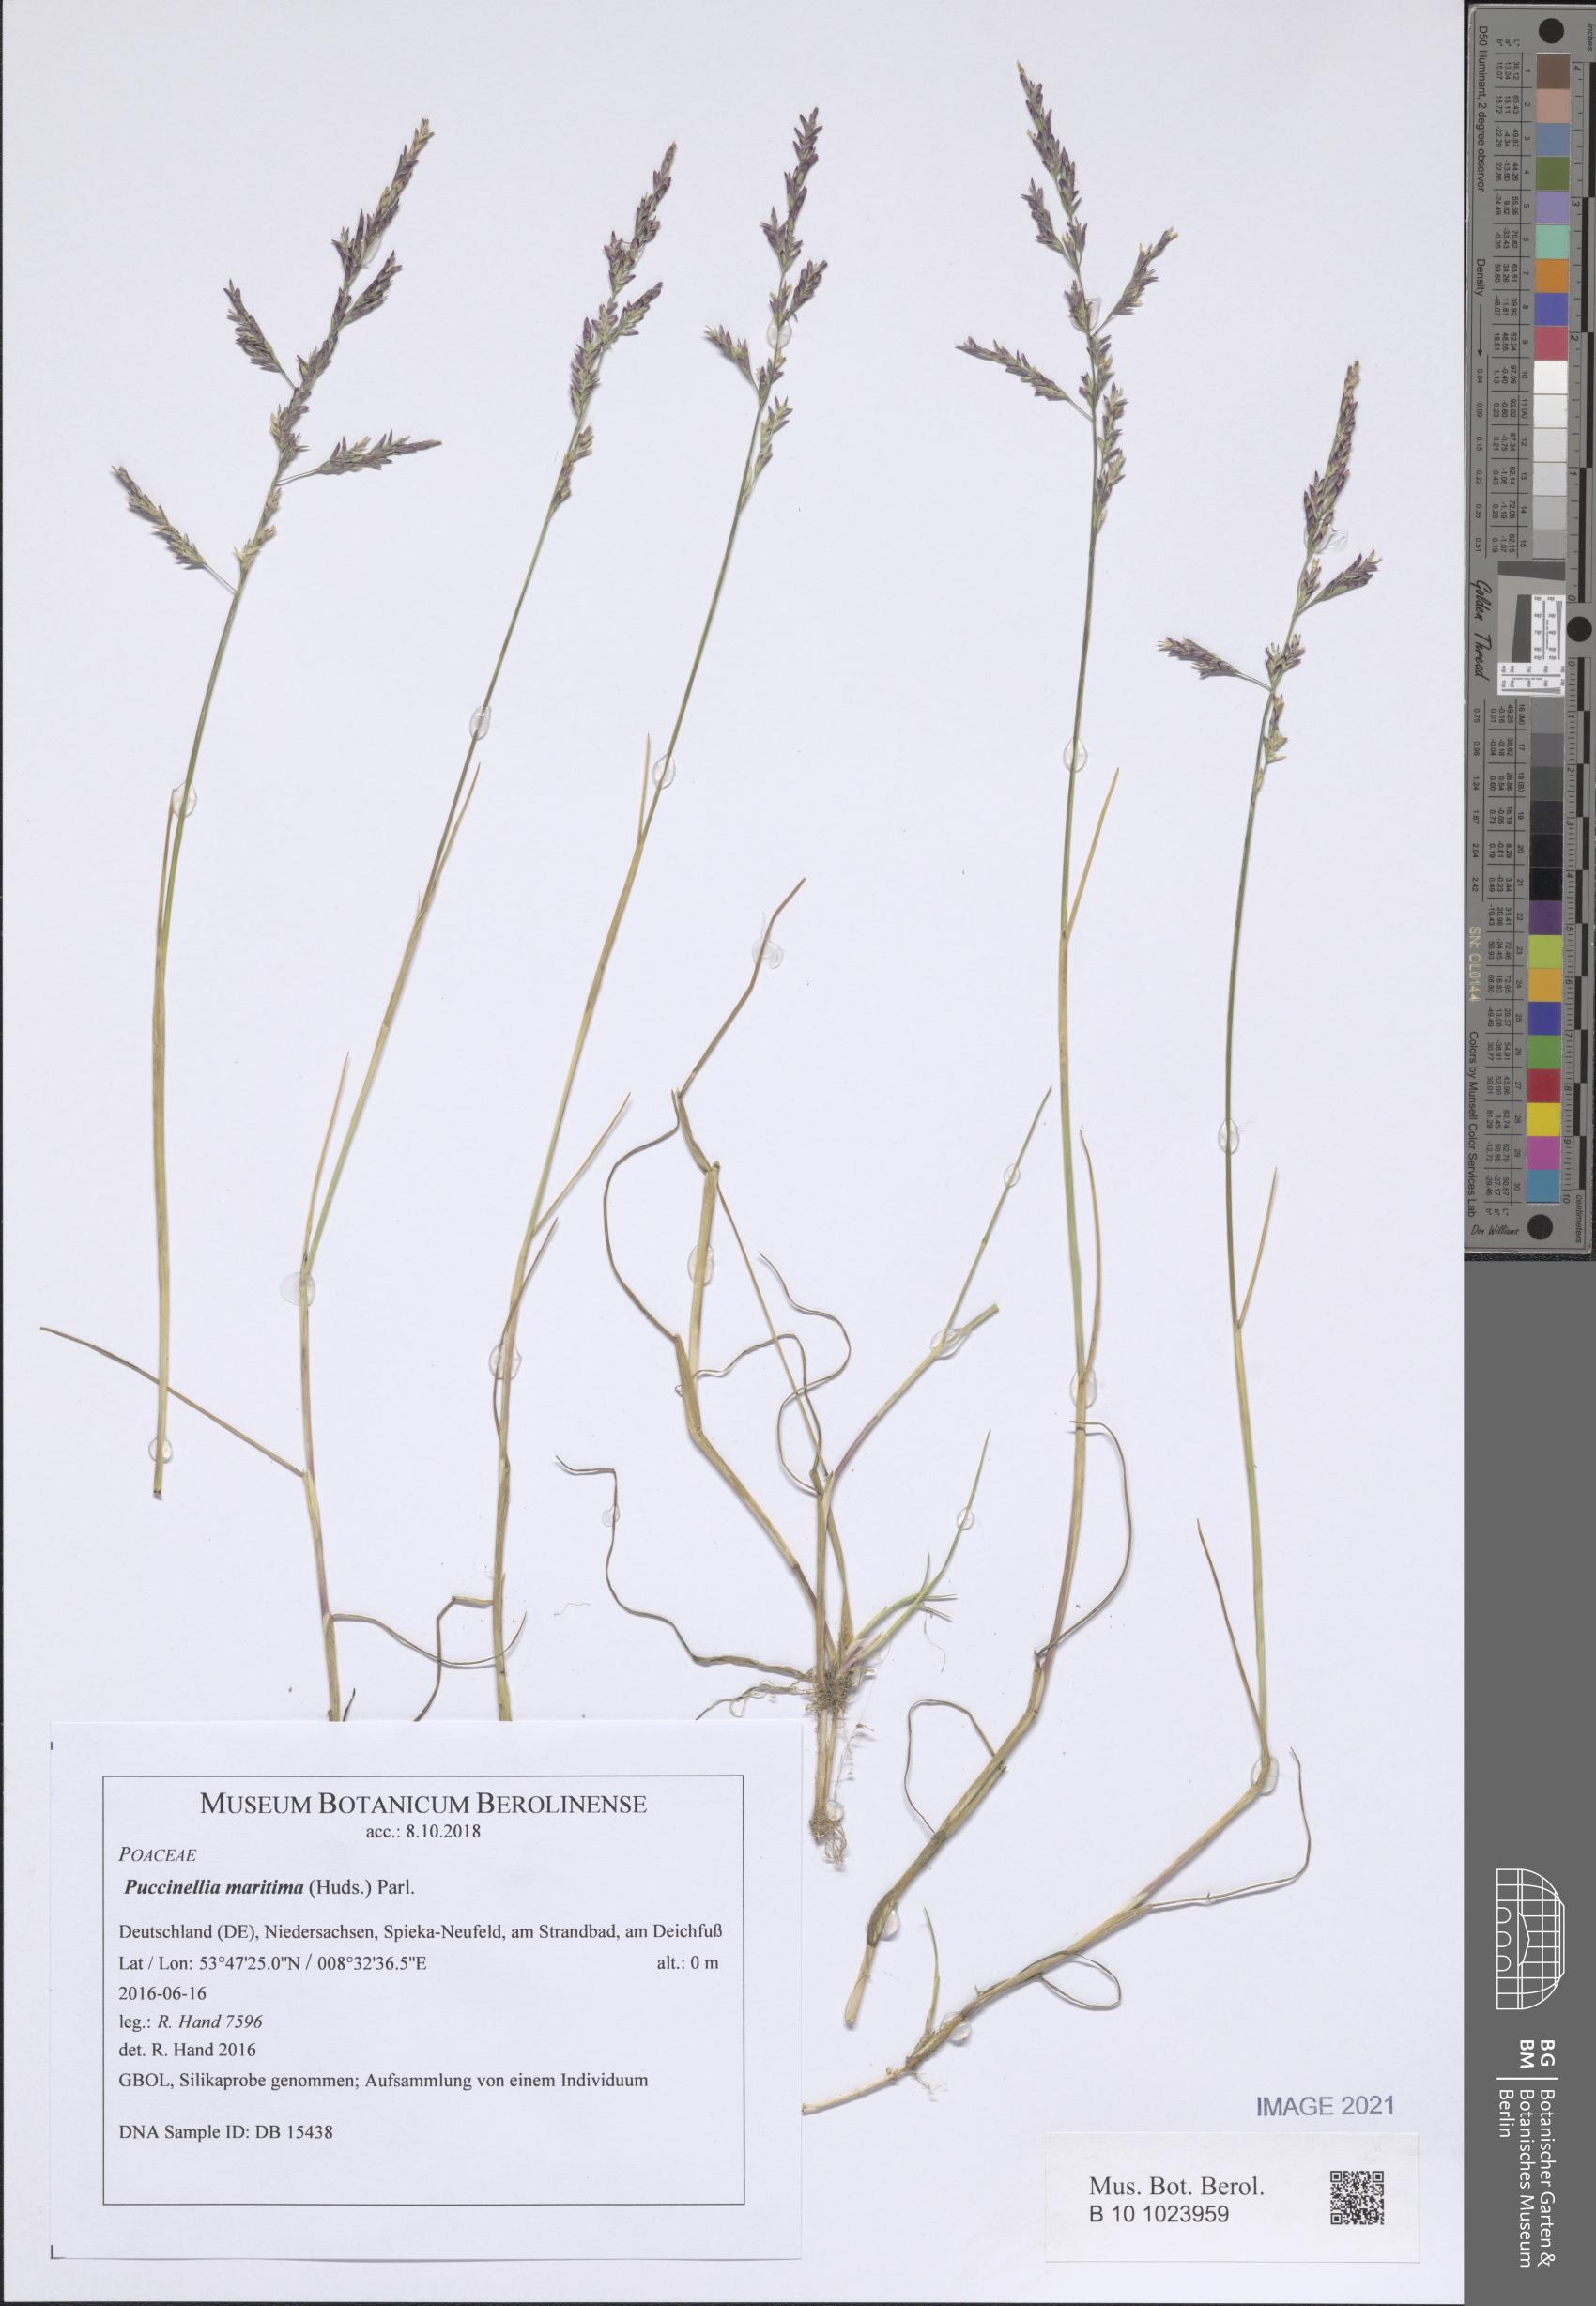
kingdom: Plantae
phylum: Tracheophyta
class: Liliopsida
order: Poales
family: Poaceae
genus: Puccinellia
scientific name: Puccinellia maritima
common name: Common saltmarsh grass
